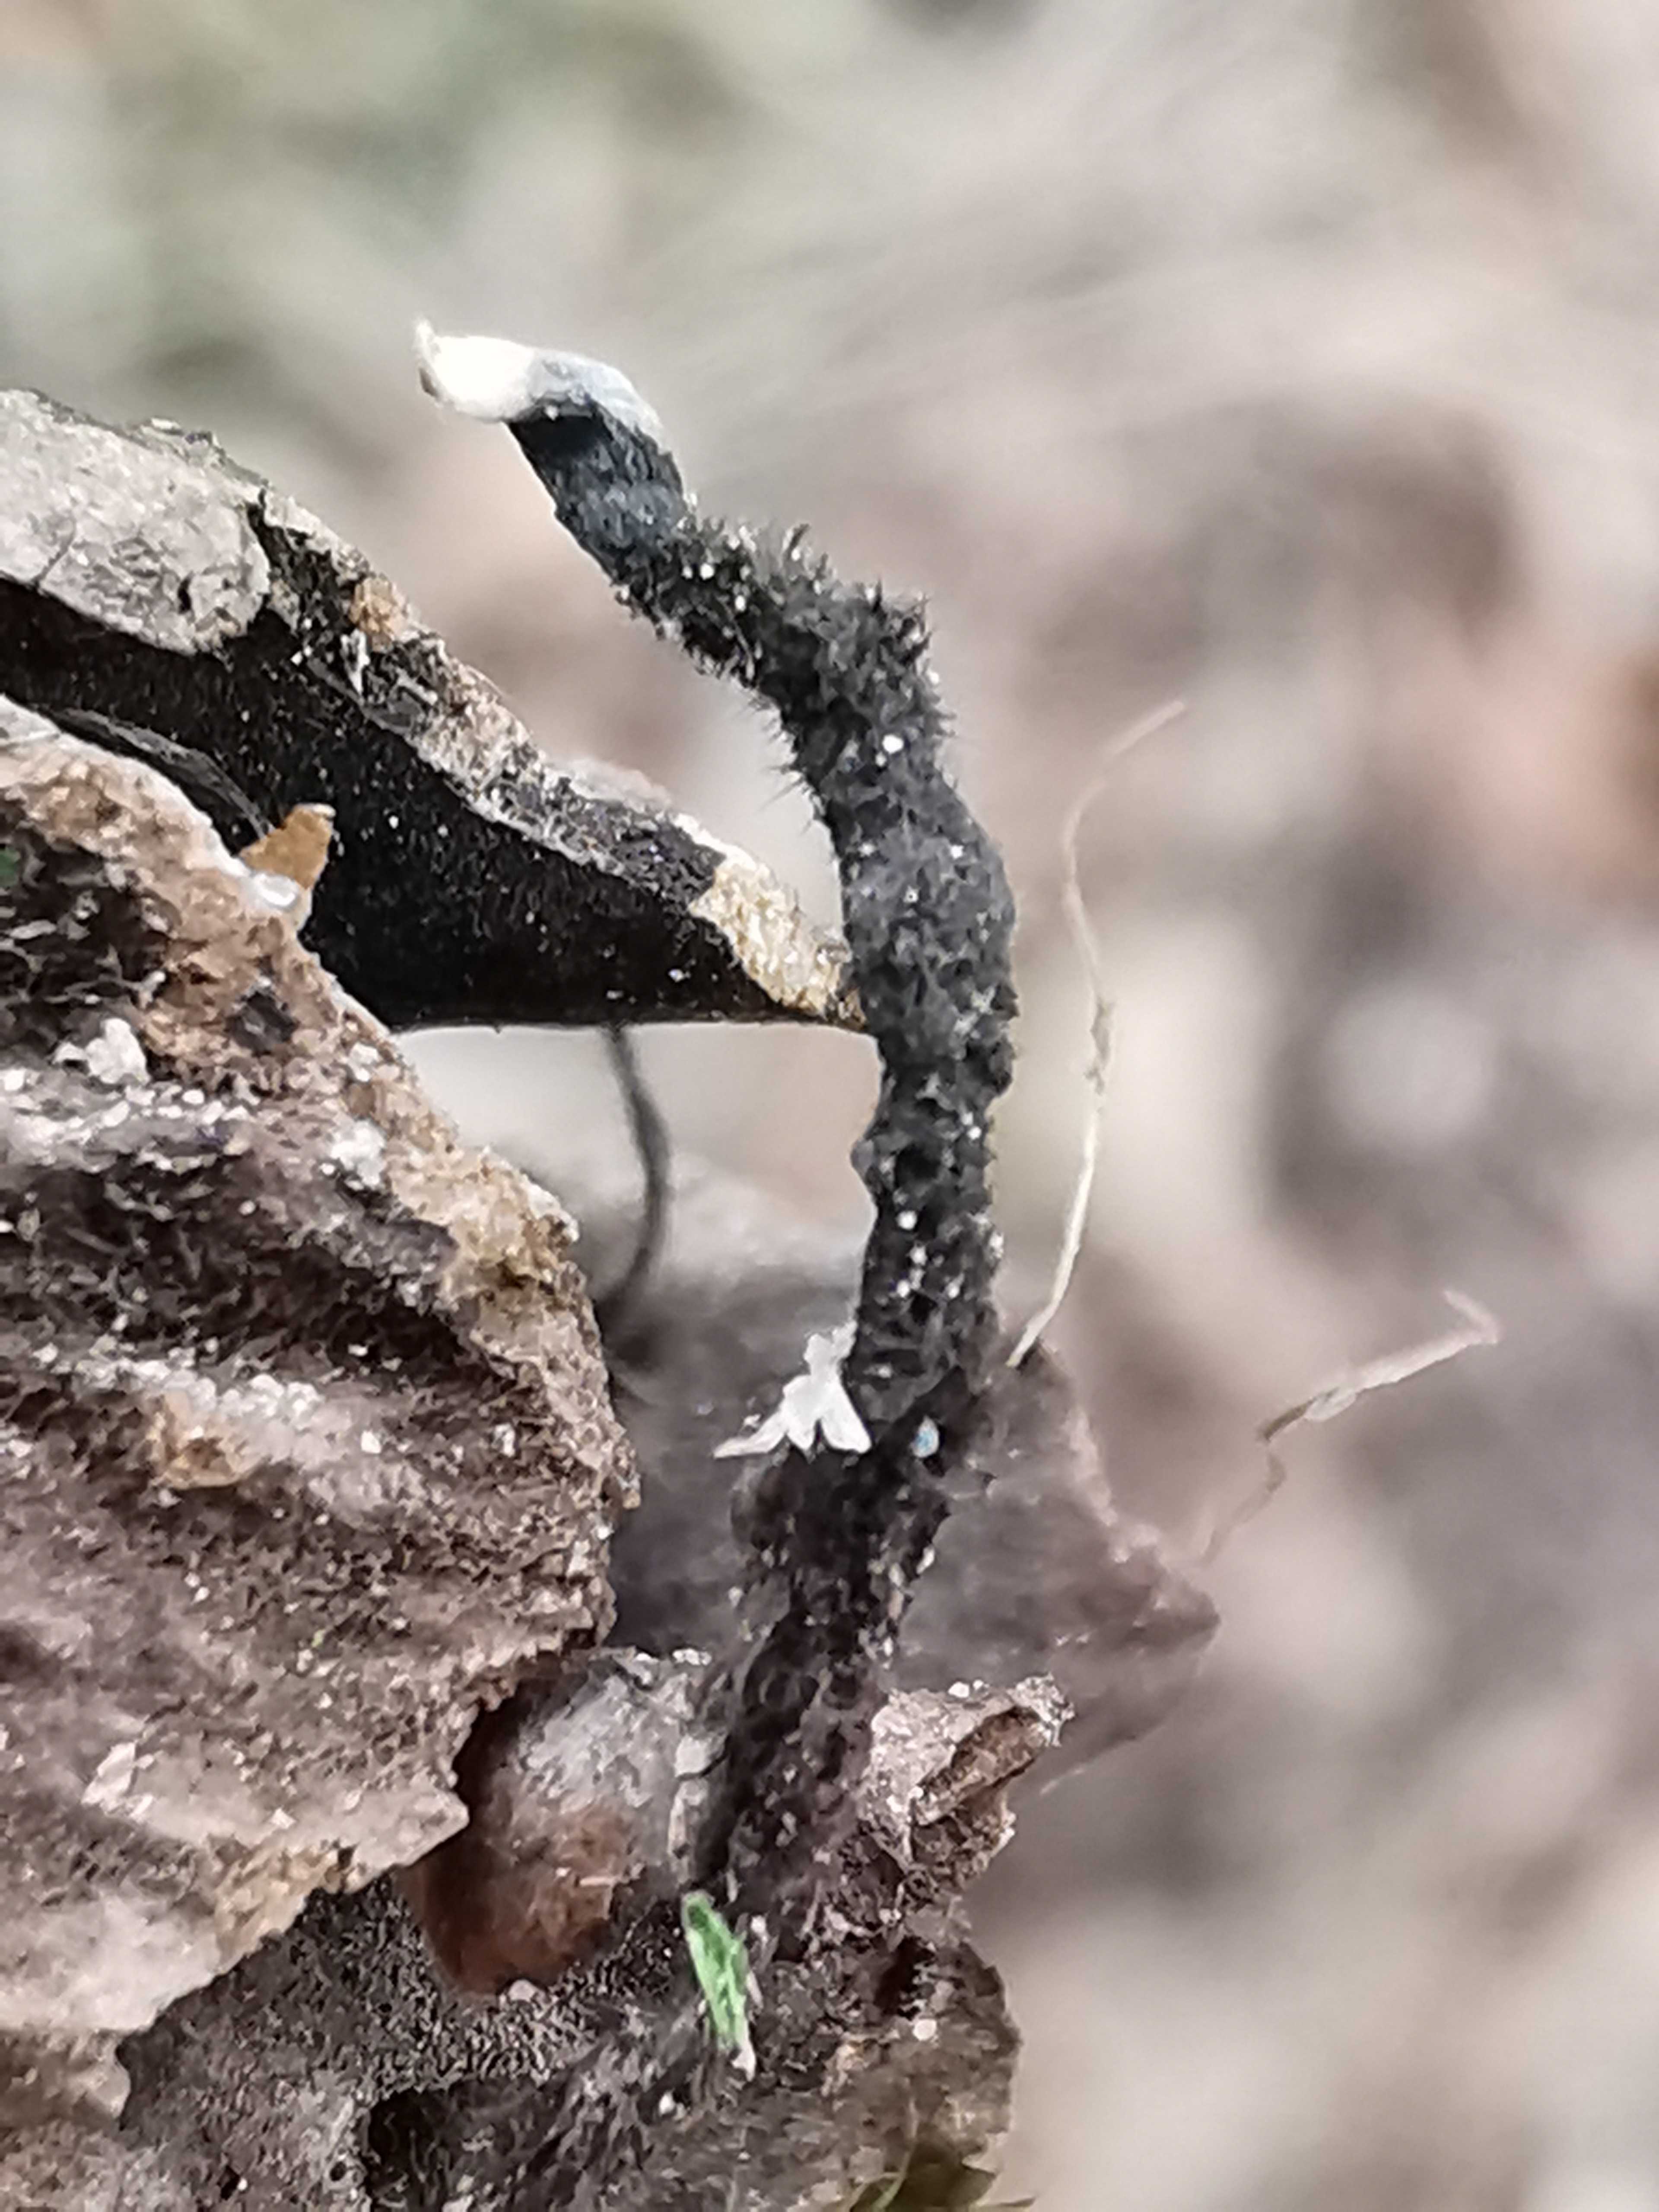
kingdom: Fungi
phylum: Ascomycota
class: Sordariomycetes
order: Xylariales
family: Xylariaceae
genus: Xylaria
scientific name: Xylaria carpophila
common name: bogskål-stødsvamp
